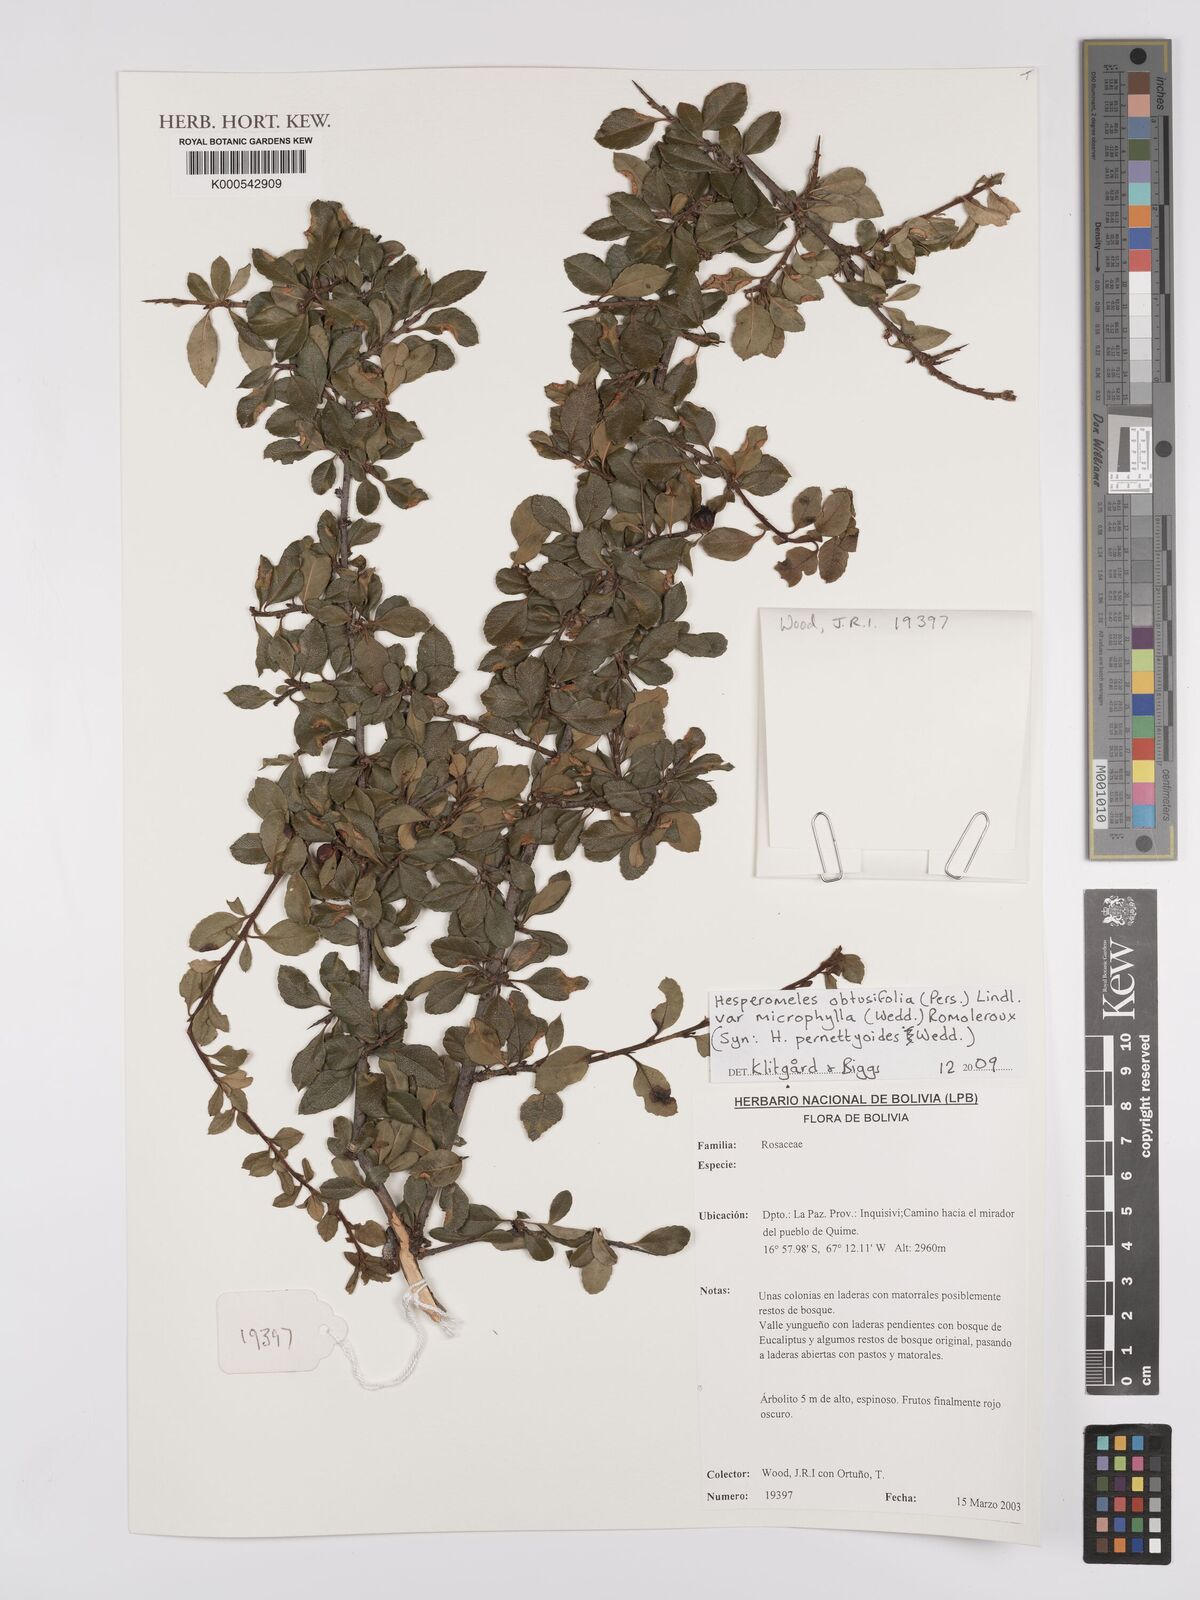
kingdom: Plantae
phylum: Tracheophyta
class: Magnoliopsida
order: Rosales
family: Rosaceae
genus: Hesperomeles
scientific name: Hesperomeles obtusifolia
